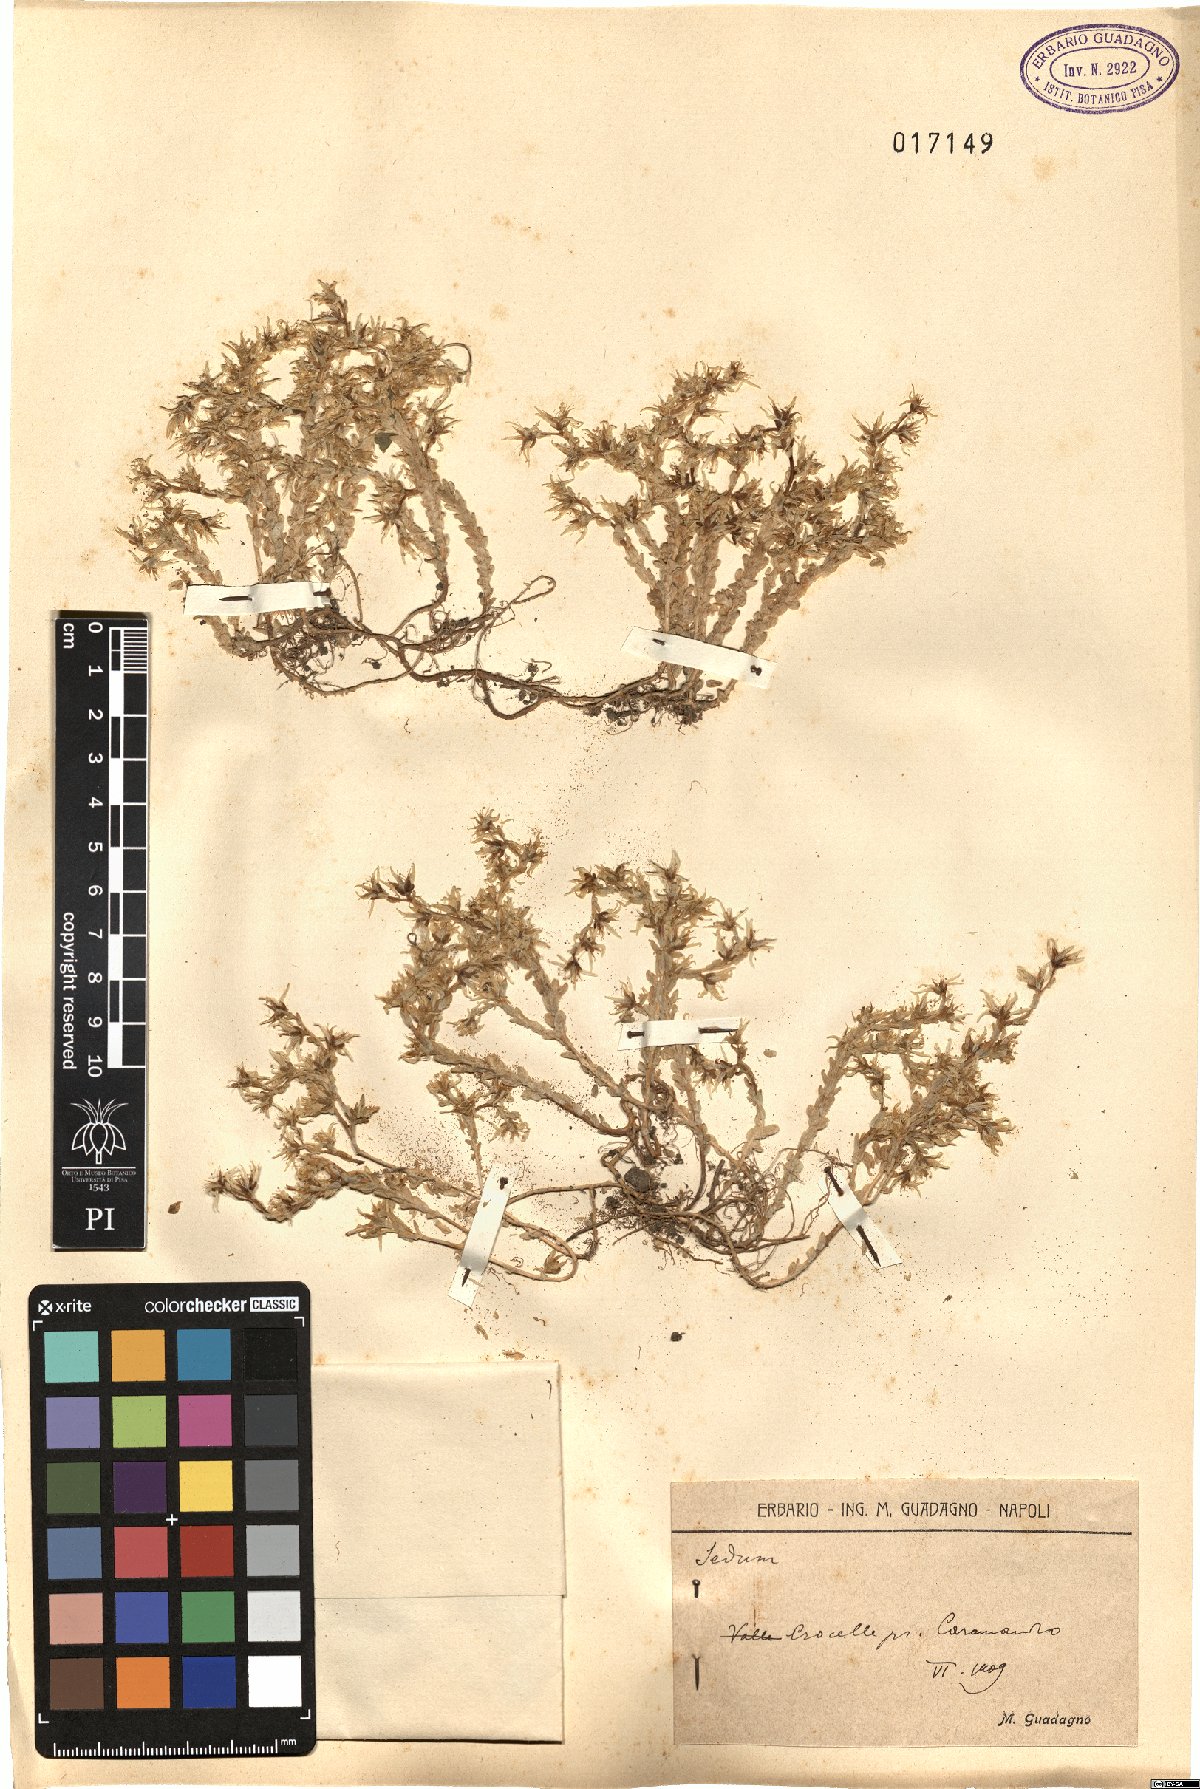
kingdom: Plantae
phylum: Tracheophyta
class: Magnoliopsida
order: Saxifragales
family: Crassulaceae
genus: Sedum
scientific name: Sedum
